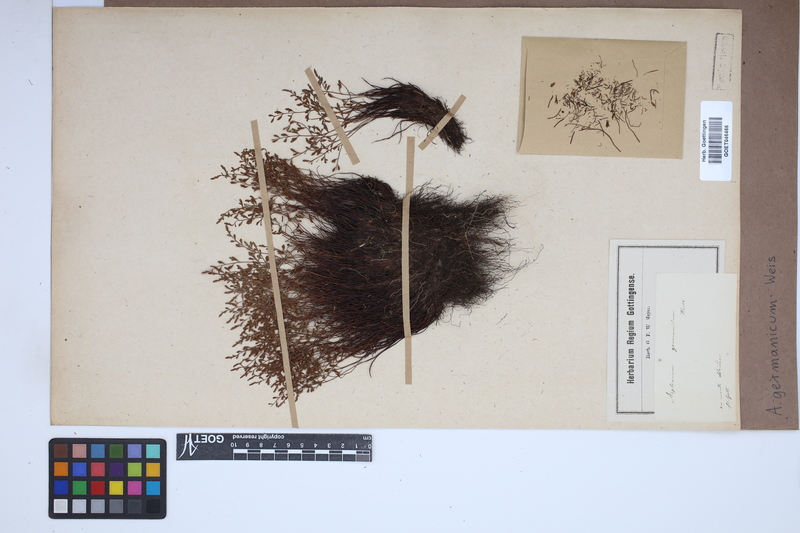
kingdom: Plantae
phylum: Tracheophyta
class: Polypodiopsida
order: Polypodiales
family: Aspleniaceae
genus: Asplenium
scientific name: Asplenium
